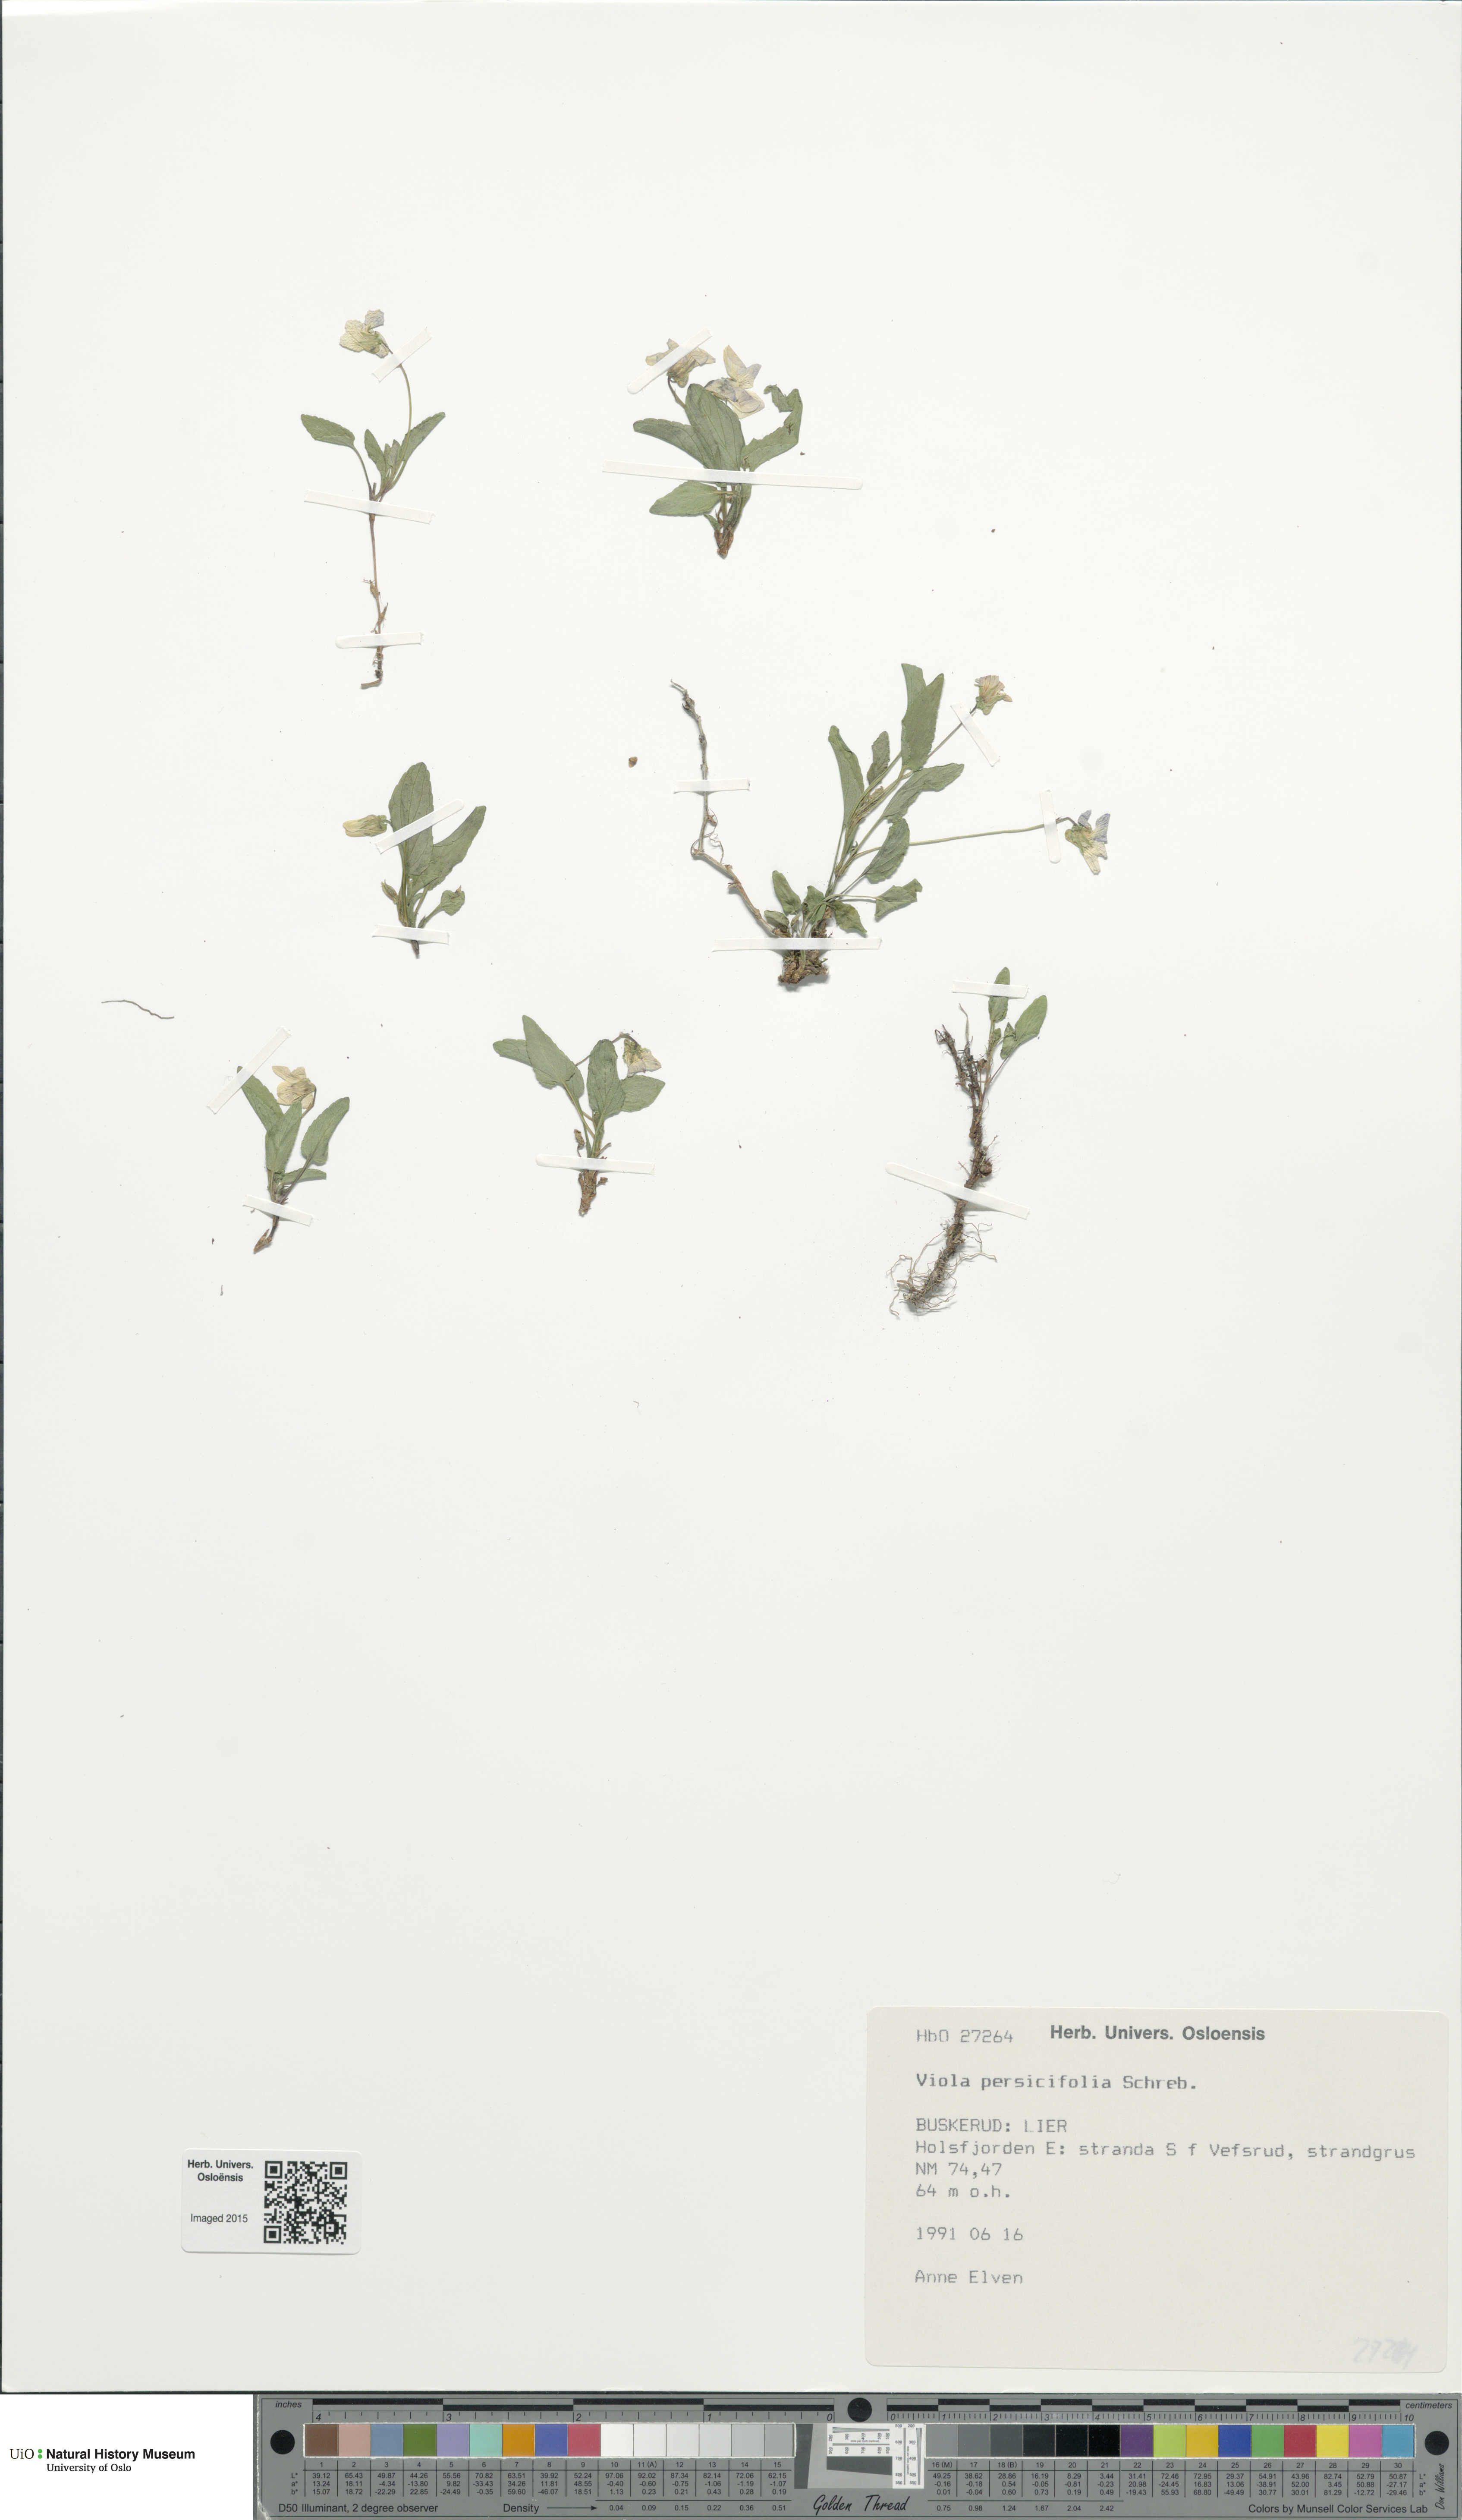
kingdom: Plantae
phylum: Tracheophyta
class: Magnoliopsida
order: Malpighiales
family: Violaceae
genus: Viola
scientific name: Viola stagnina
